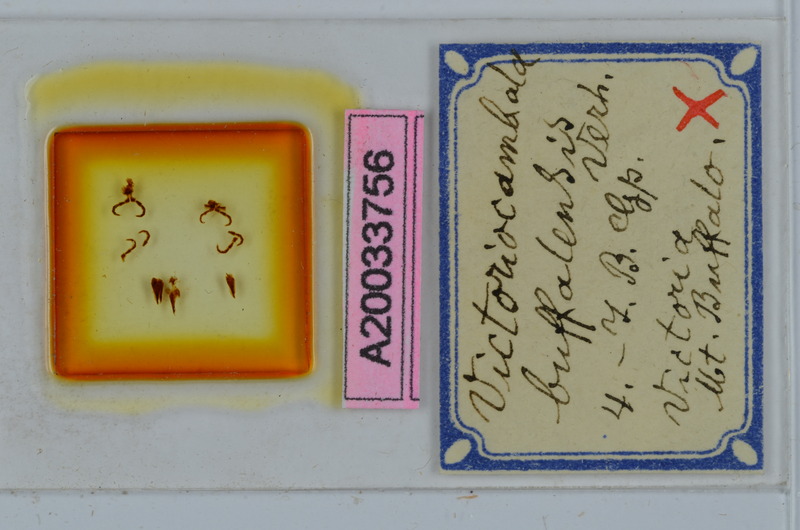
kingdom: Animalia
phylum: Arthropoda
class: Diplopoda
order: Spirostreptida
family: Iulomorphidae
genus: Victoriocambala
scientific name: Victoriocambala buffalensis
